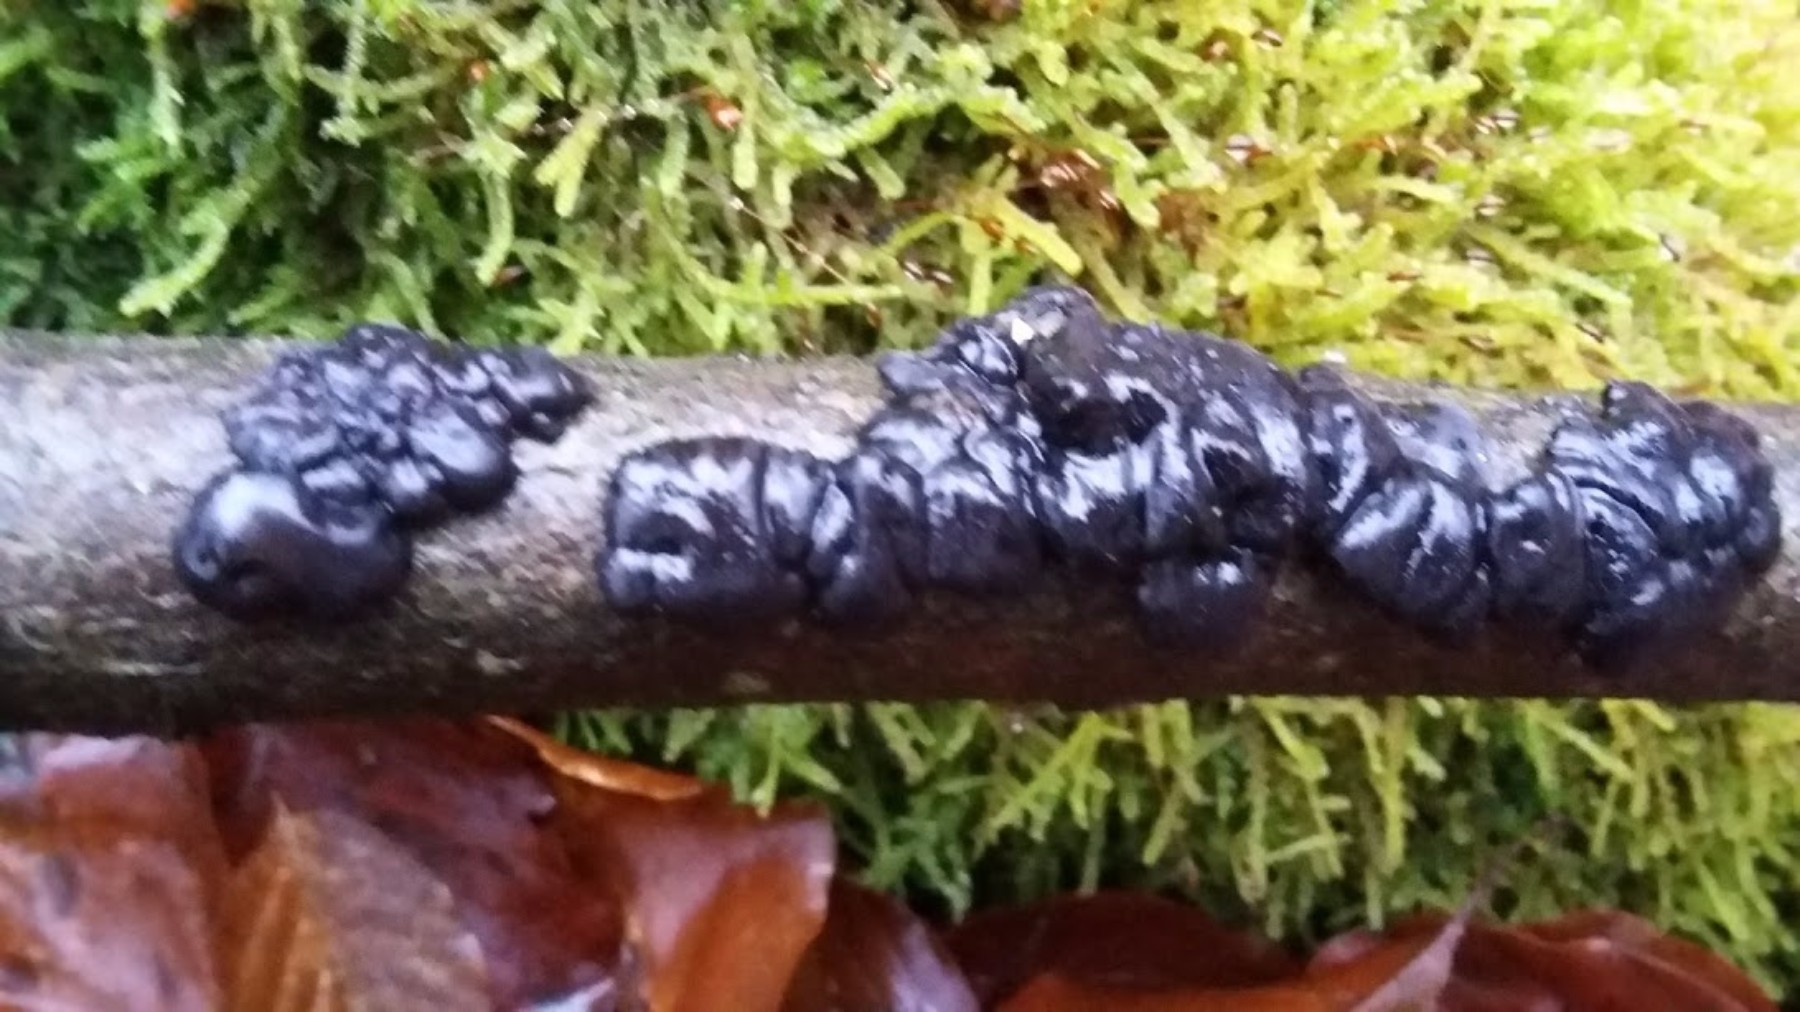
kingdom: Fungi
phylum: Basidiomycota
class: Agaricomycetes
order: Auriculariales
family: Auriculariaceae
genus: Exidia
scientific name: Exidia nigricans
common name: almindelig bævretop
